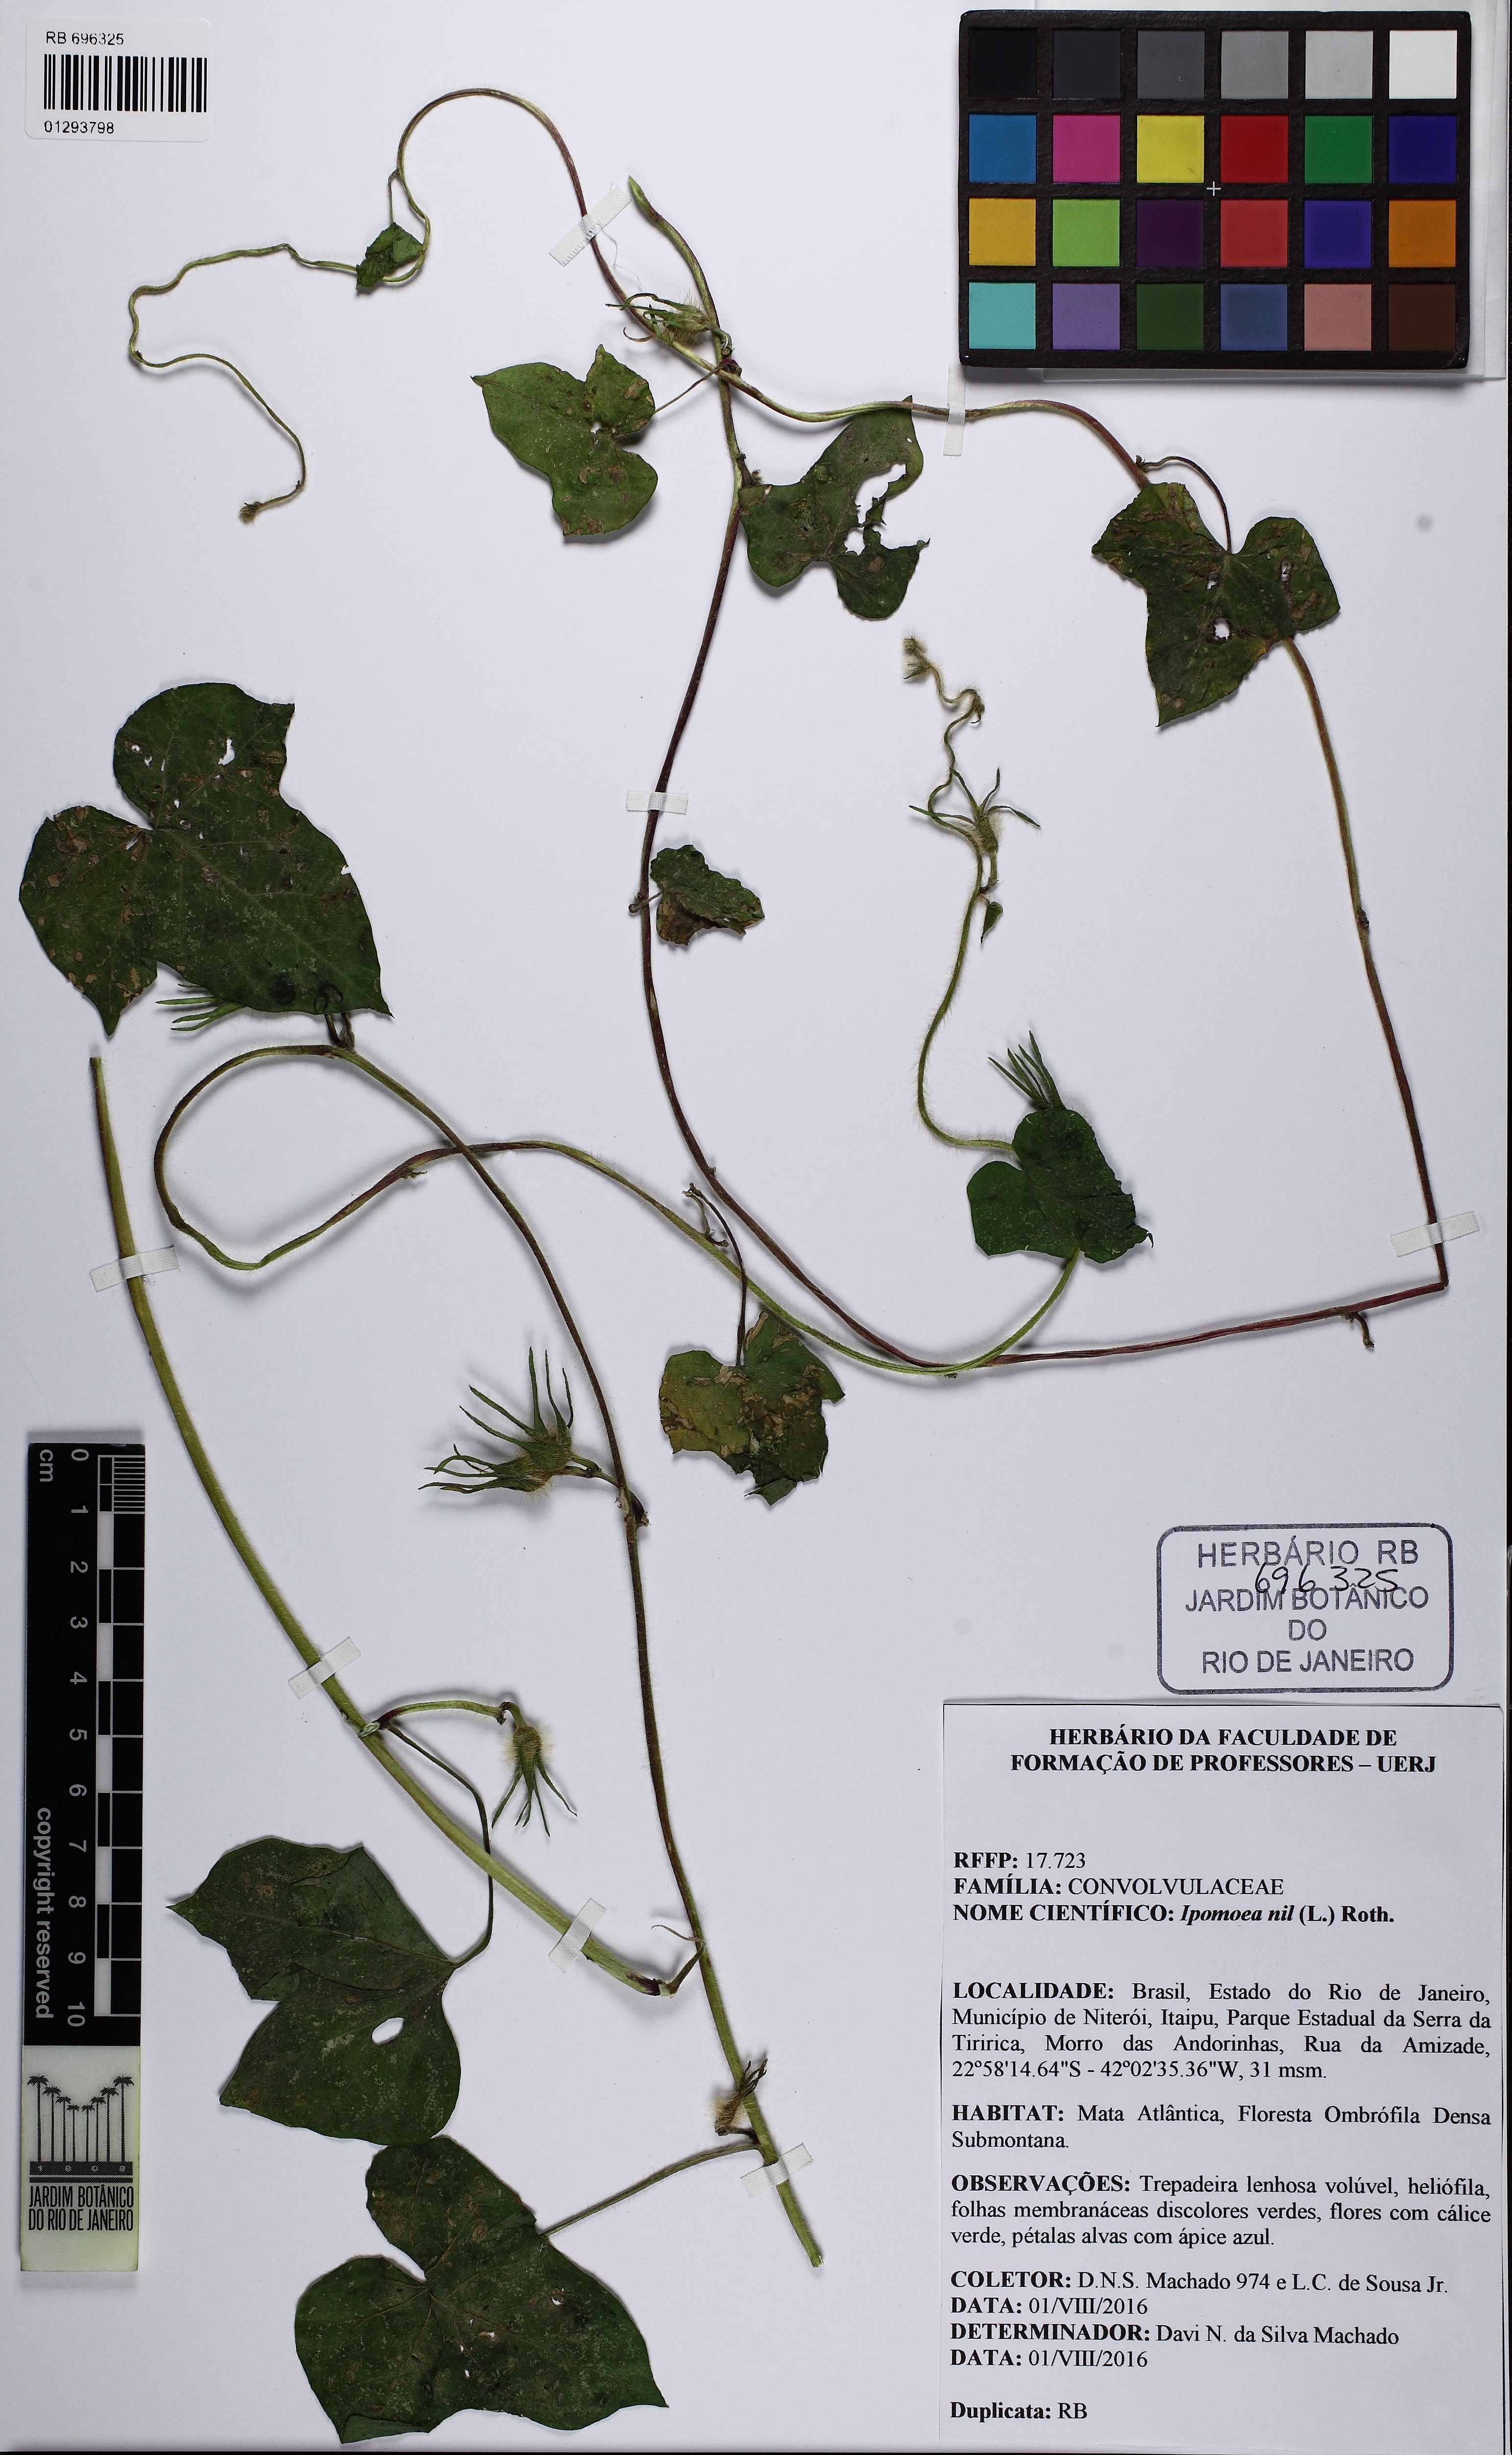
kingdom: Plantae
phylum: Tracheophyta
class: Magnoliopsida
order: Solanales
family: Convolvulaceae
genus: Ipomoea
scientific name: Ipomoea nil
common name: Japanese morning-glory
